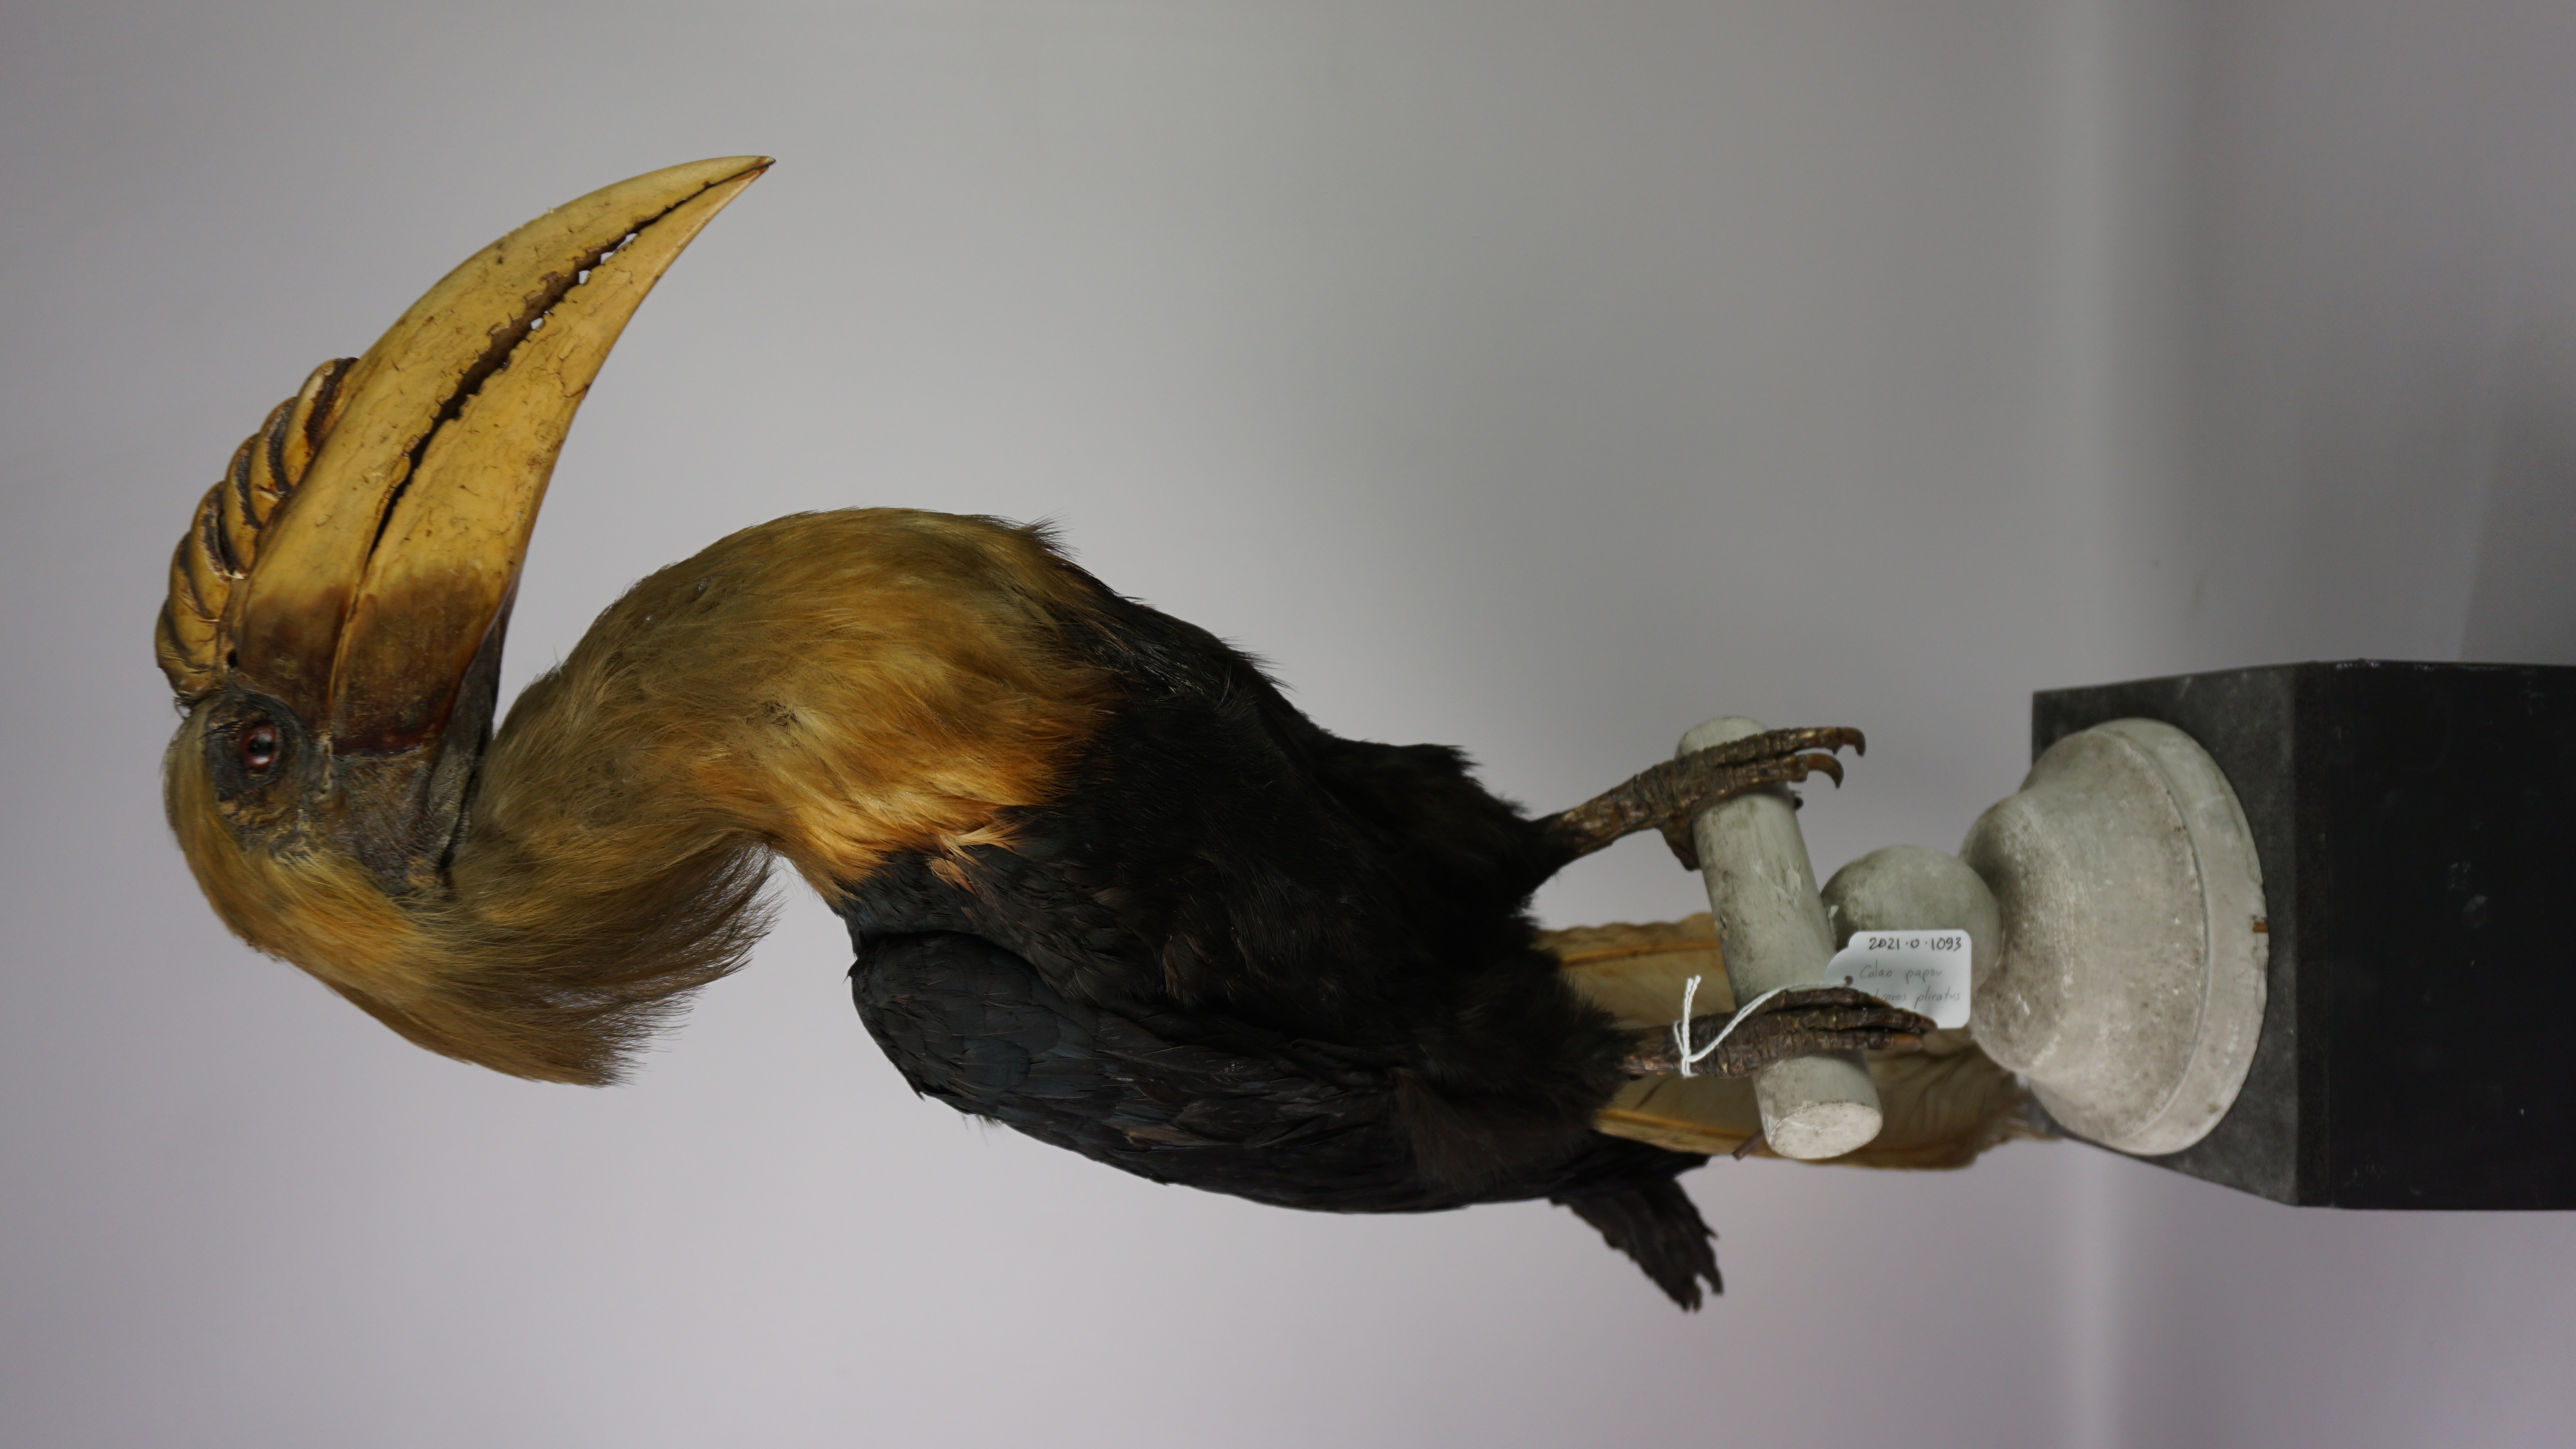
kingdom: Animalia
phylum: Chordata
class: Aves
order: Bucerotiformes
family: Bucerotidae
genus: Rhyticeros
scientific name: Rhyticeros plicatus
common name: Blyth's hornbill
